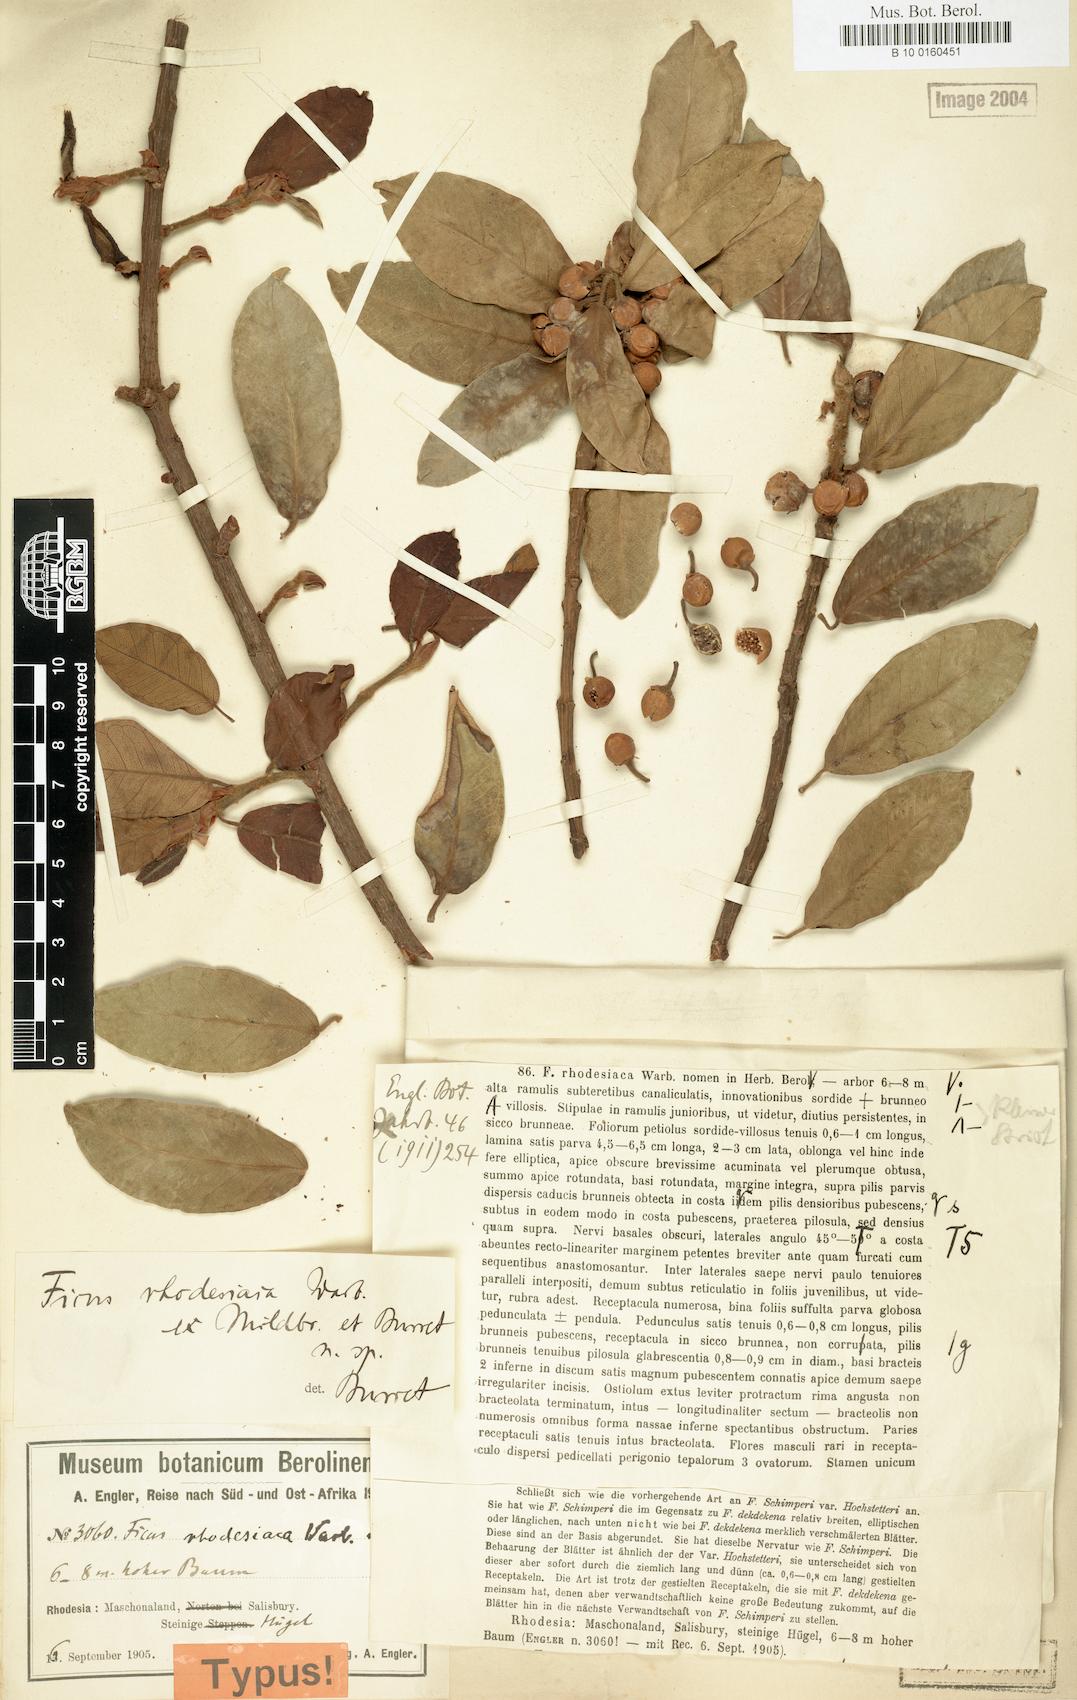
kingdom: Plantae
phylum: Tracheophyta
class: Magnoliopsida
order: Rosales
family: Moraceae
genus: Ficus
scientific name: Ficus thonningii
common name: Fig
